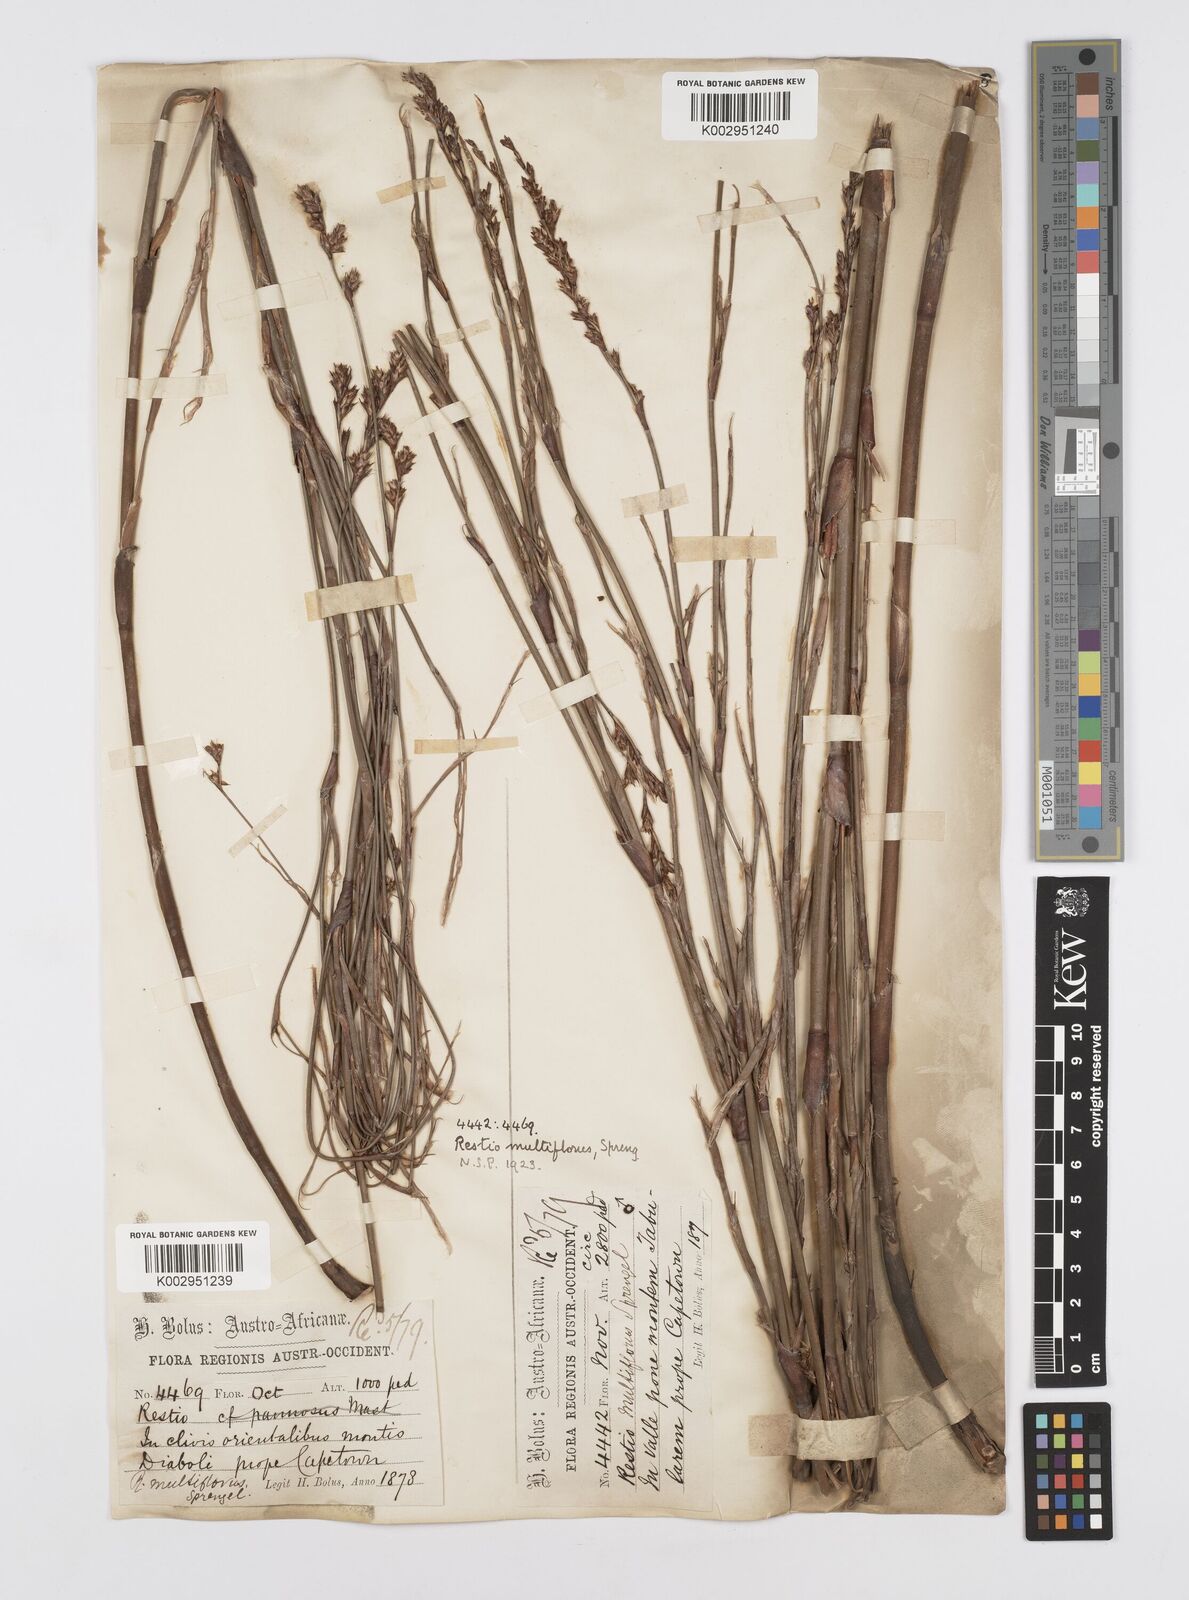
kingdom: Plantae
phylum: Tracheophyta
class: Liliopsida
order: Poales
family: Restionaceae
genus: Restio
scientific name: Restio multiflorus
